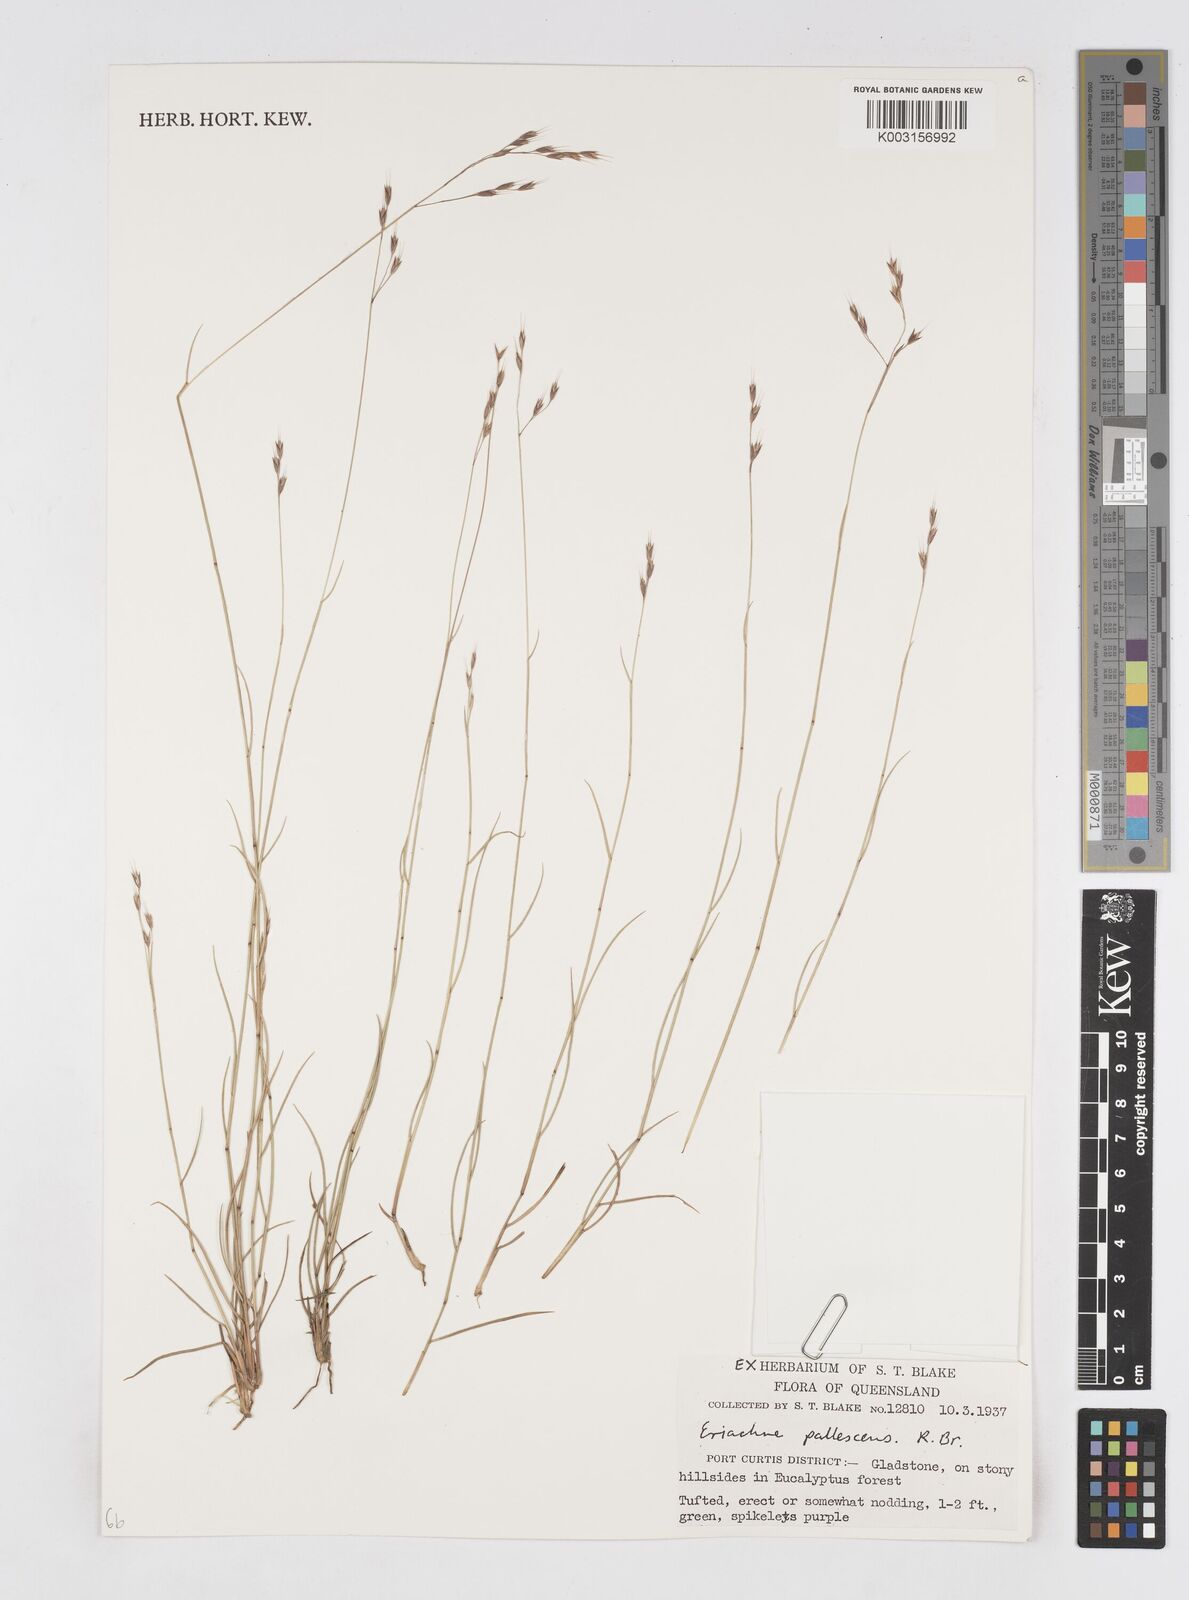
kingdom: Plantae
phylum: Tracheophyta
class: Liliopsida
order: Poales
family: Poaceae
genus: Eriachne
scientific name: Eriachne pallescens
